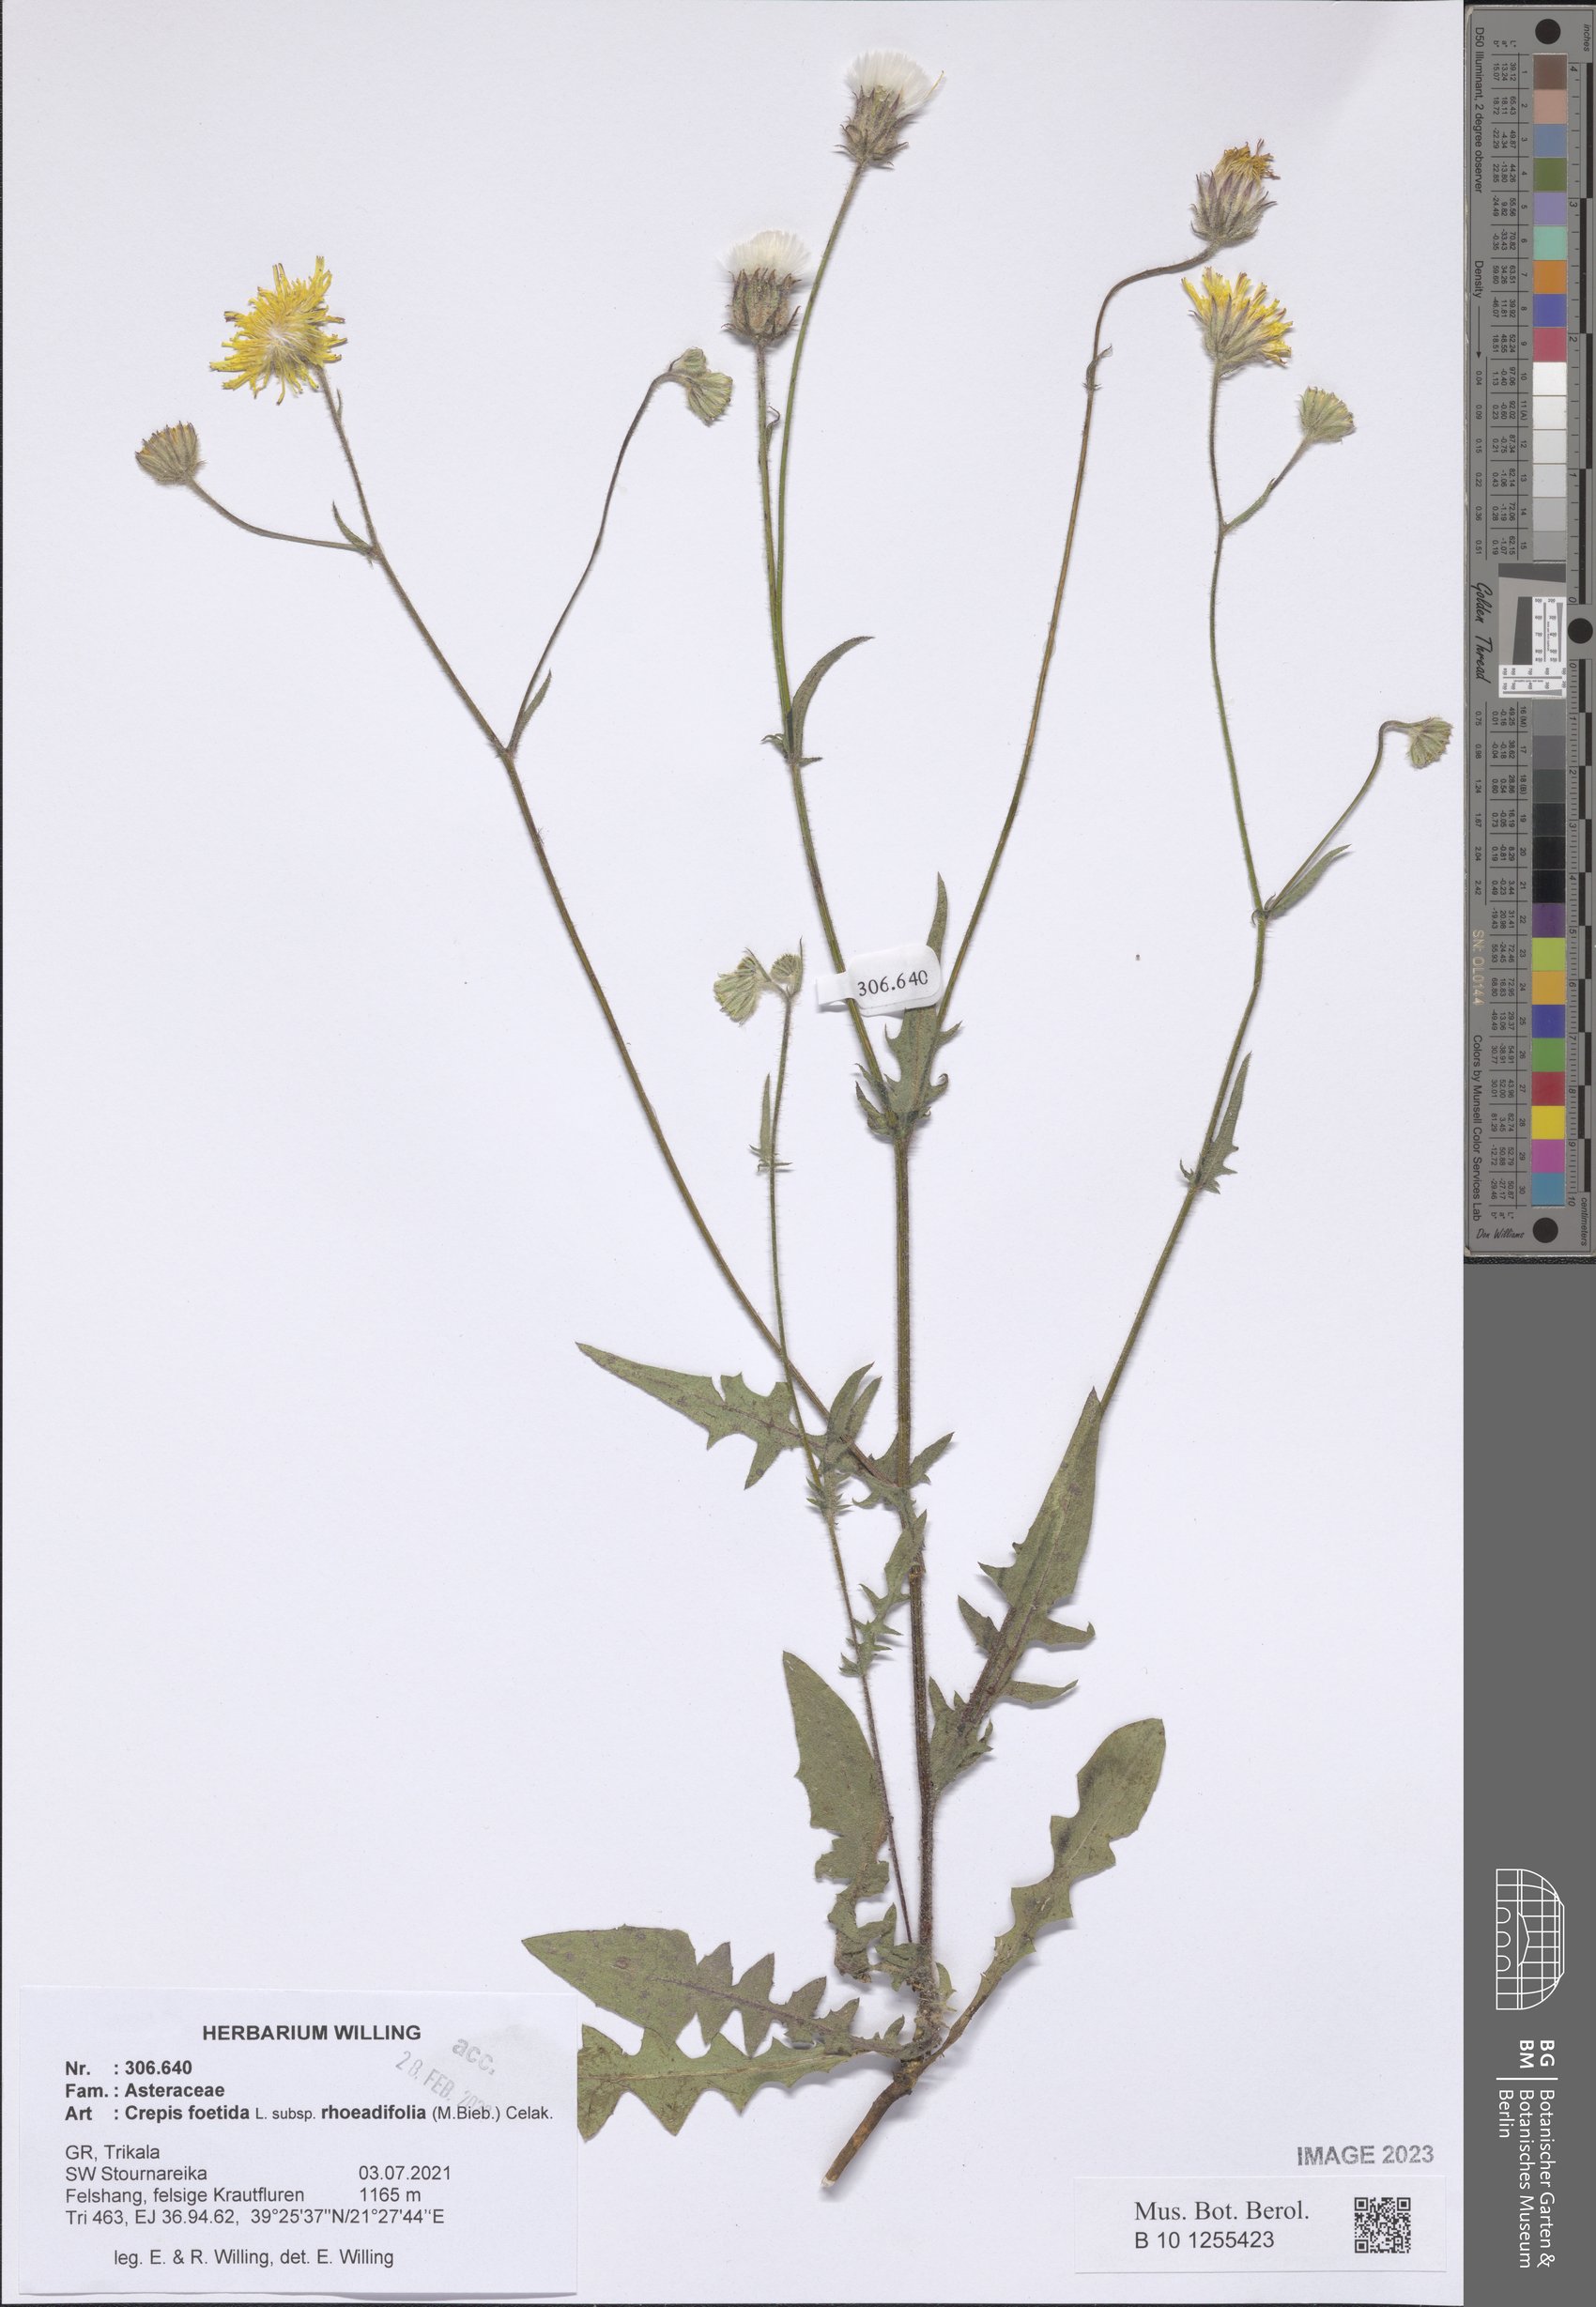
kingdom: Plantae
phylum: Tracheophyta
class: Magnoliopsida
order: Asterales
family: Asteraceae
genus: Crepis
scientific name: Crepis foetida
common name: Stinking hawk's-beard
